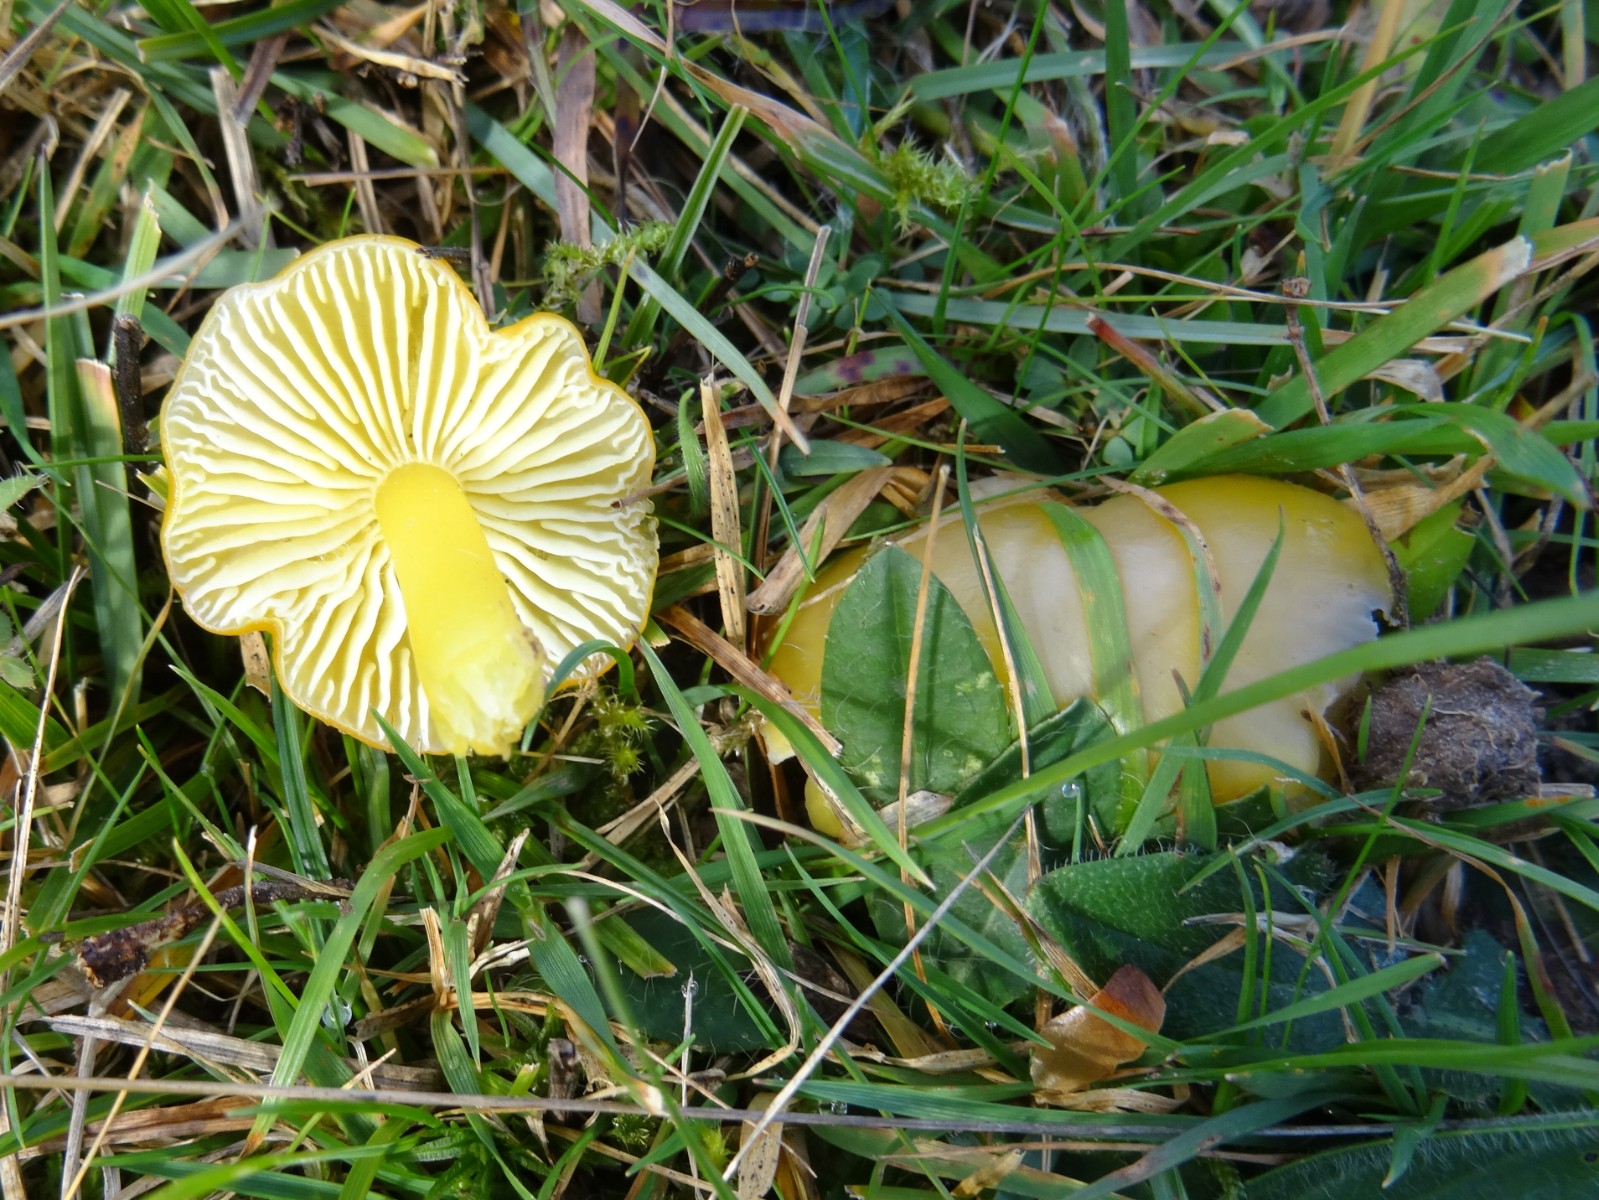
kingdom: Fungi
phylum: Basidiomycota
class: Agaricomycetes
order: Agaricales
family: Hygrophoraceae
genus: Hygrocybe
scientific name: Hygrocybe chlorophana
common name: gul vokshat
